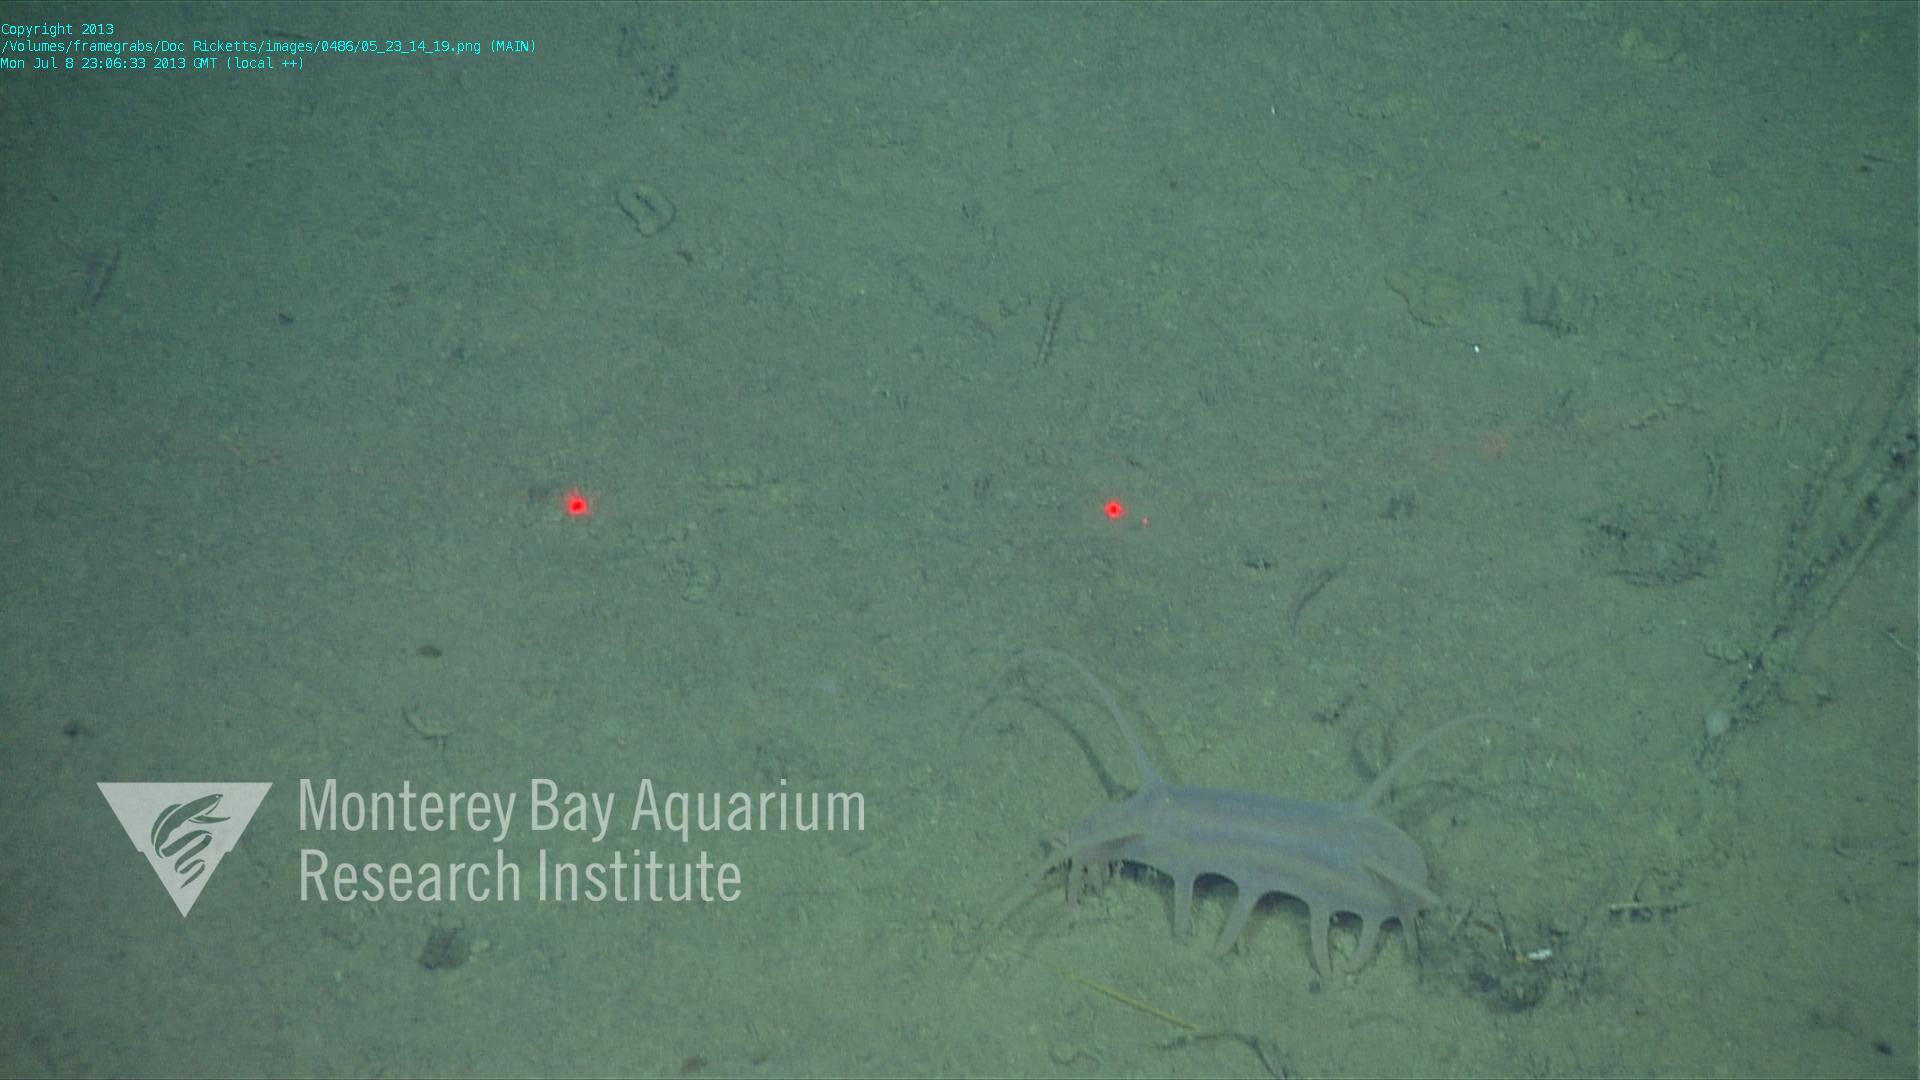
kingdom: Animalia
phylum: Porifera
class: Hexactinellida
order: Lyssacinosida
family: Rossellidae
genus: Bathydorus
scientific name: Bathydorus spinosus
